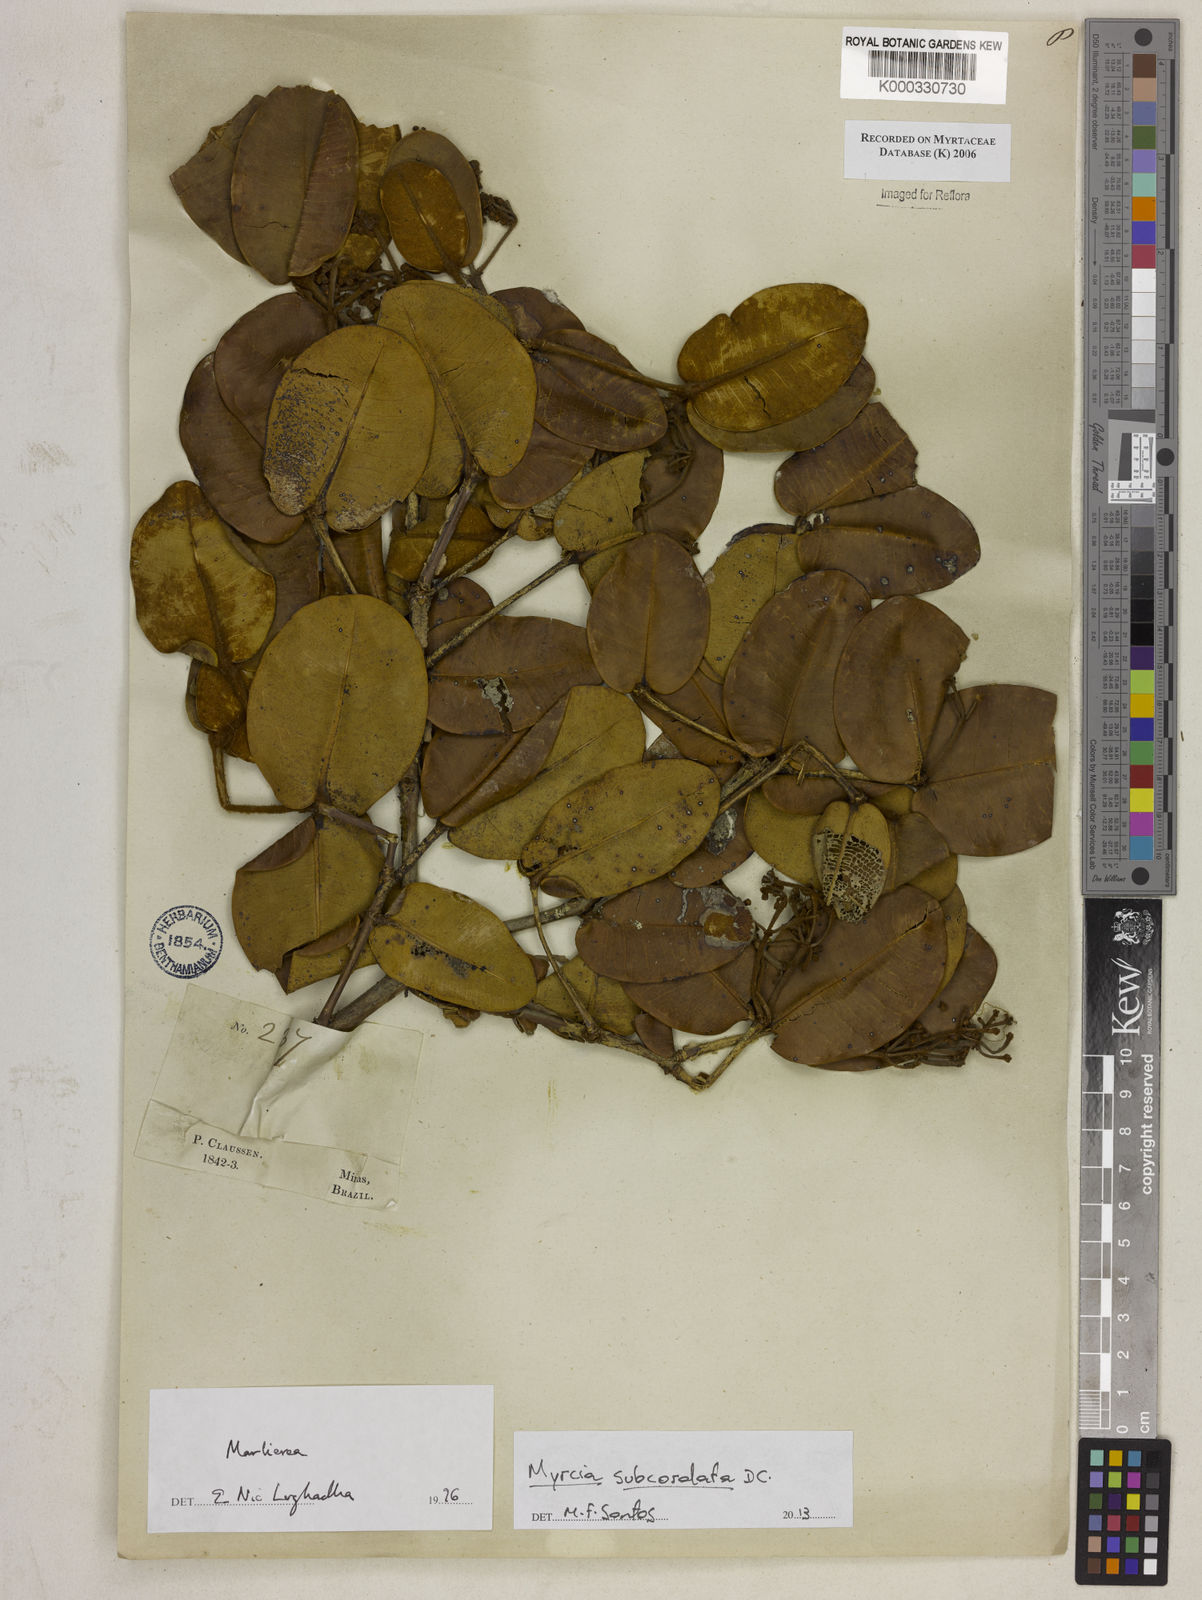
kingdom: Plantae
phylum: Tracheophyta
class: Magnoliopsida
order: Myrtales
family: Myrtaceae
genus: Marlierea
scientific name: Marlierea
